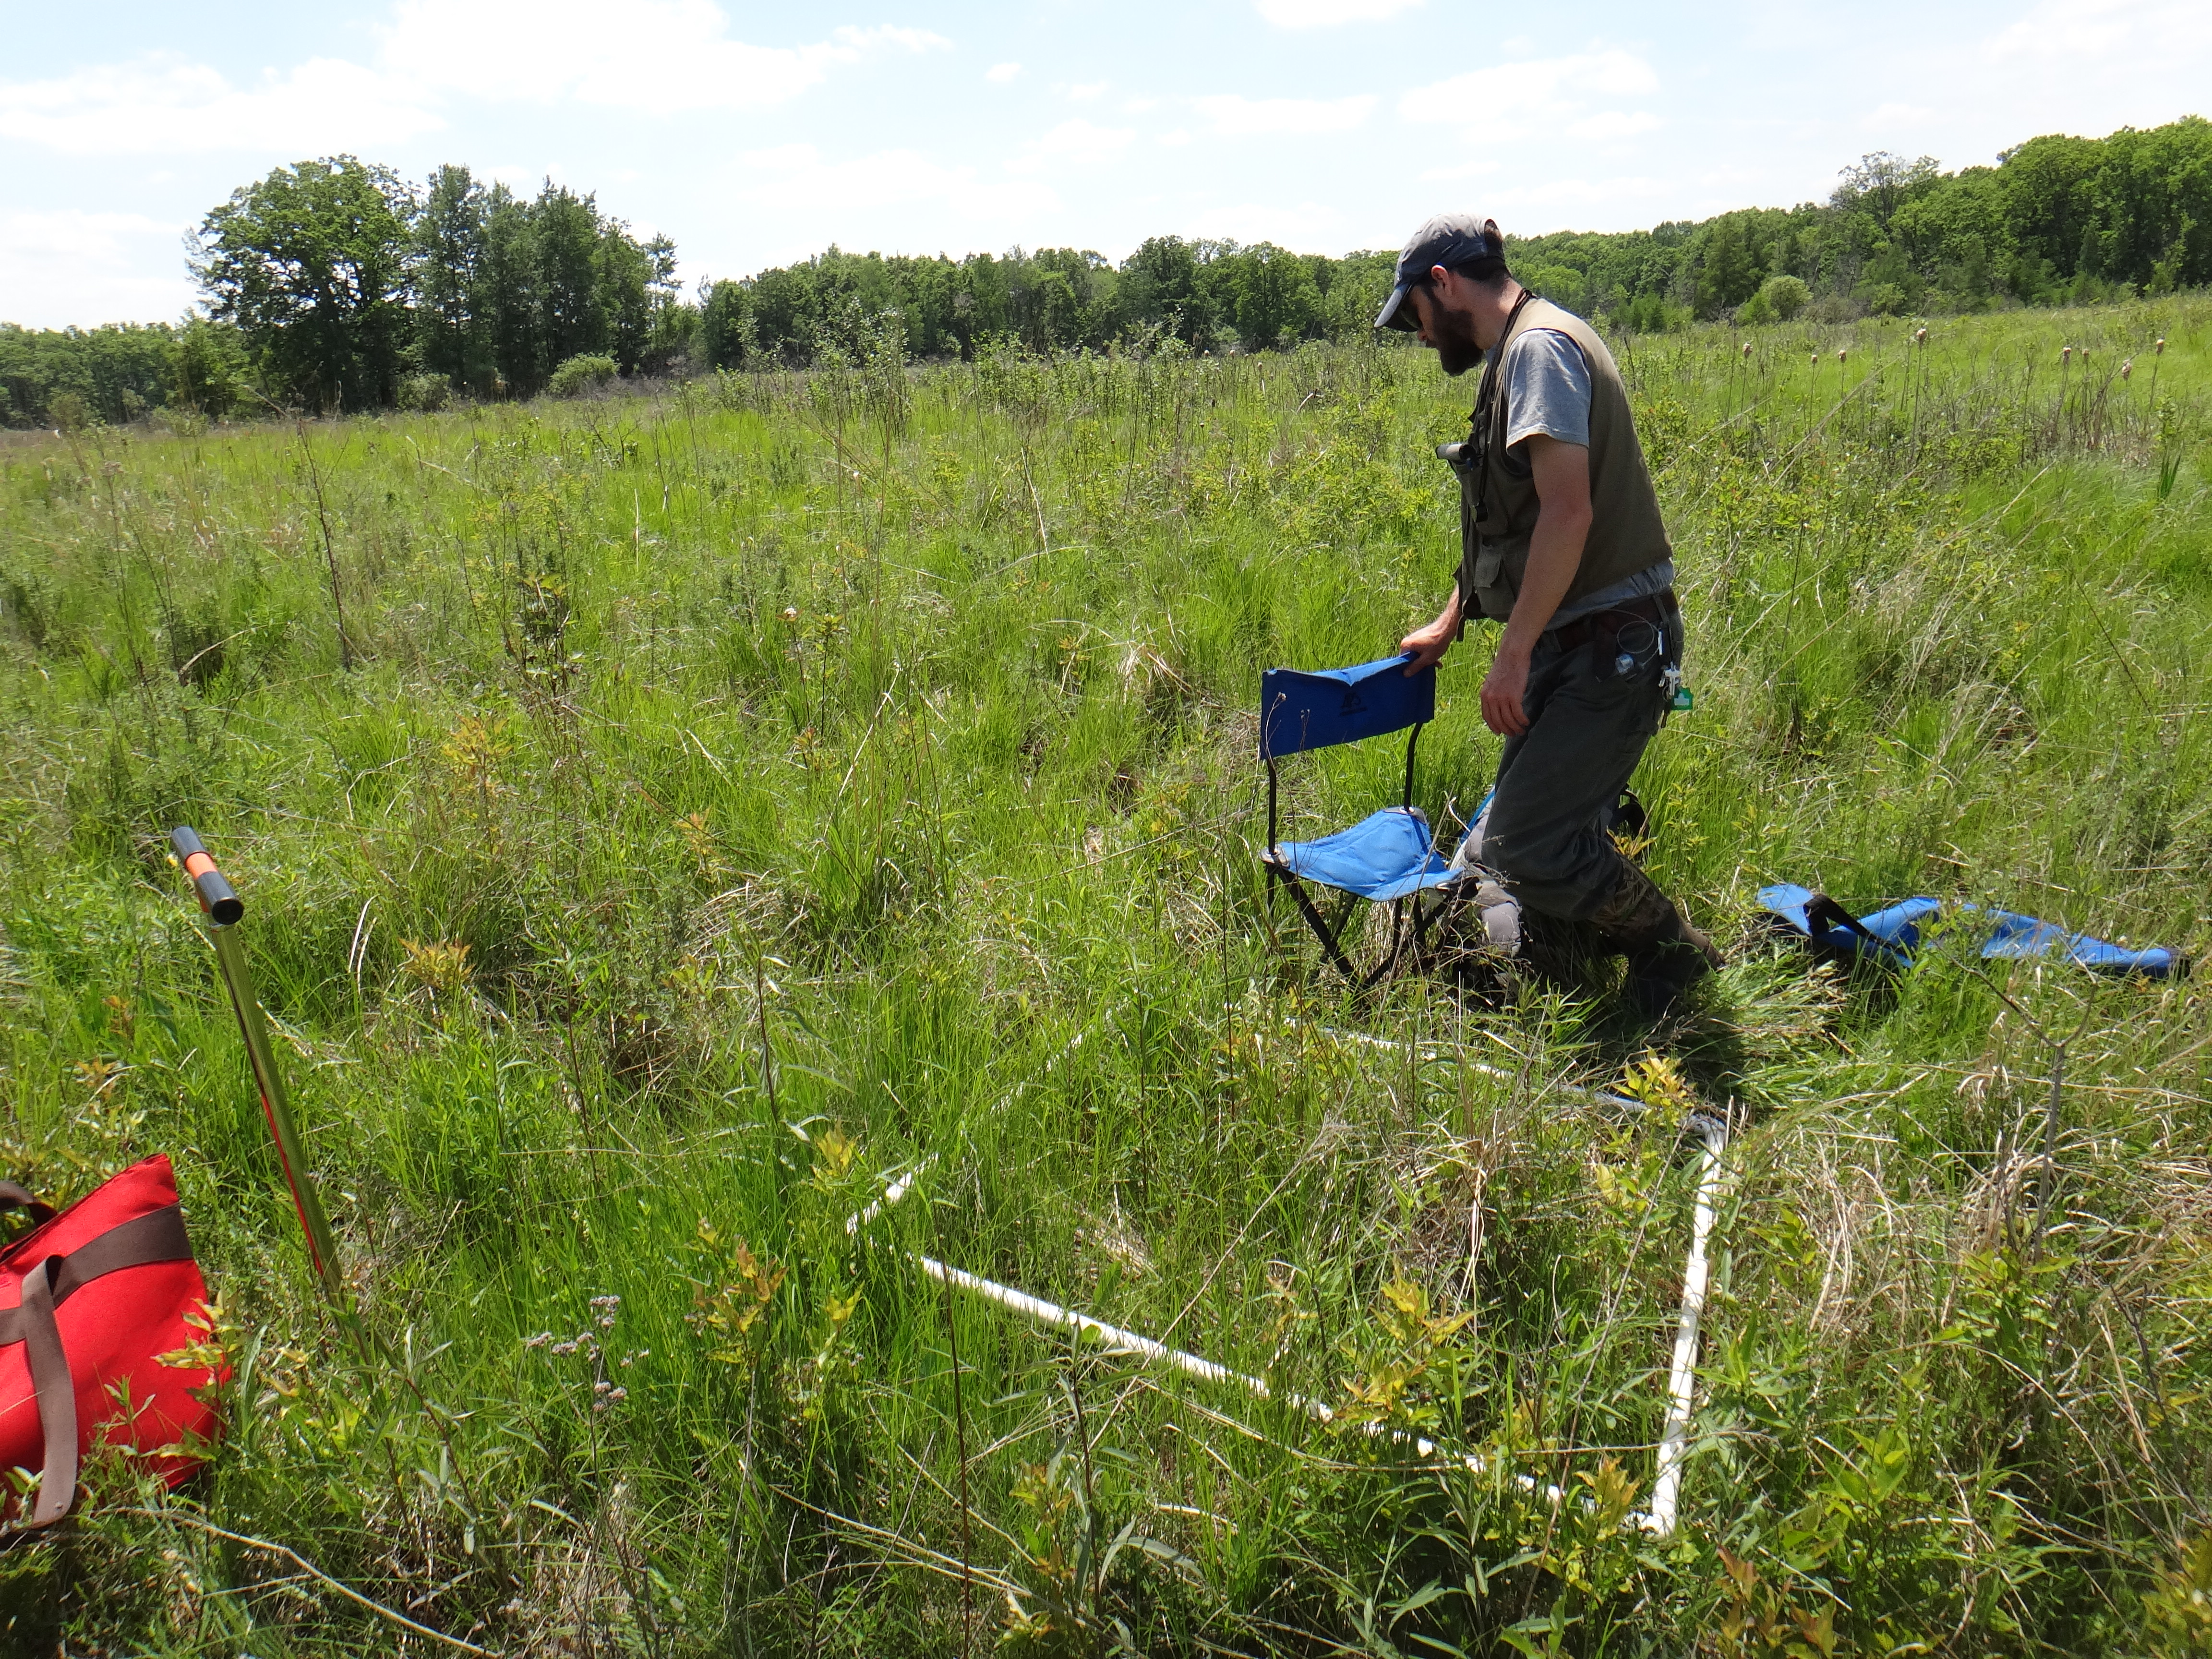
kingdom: Plantae
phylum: Tracheophyta
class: Magnoliopsida
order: Lamiales
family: Lamiaceae
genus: Lycopus
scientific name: Lycopus uniflorus
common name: Northern bugleweed
